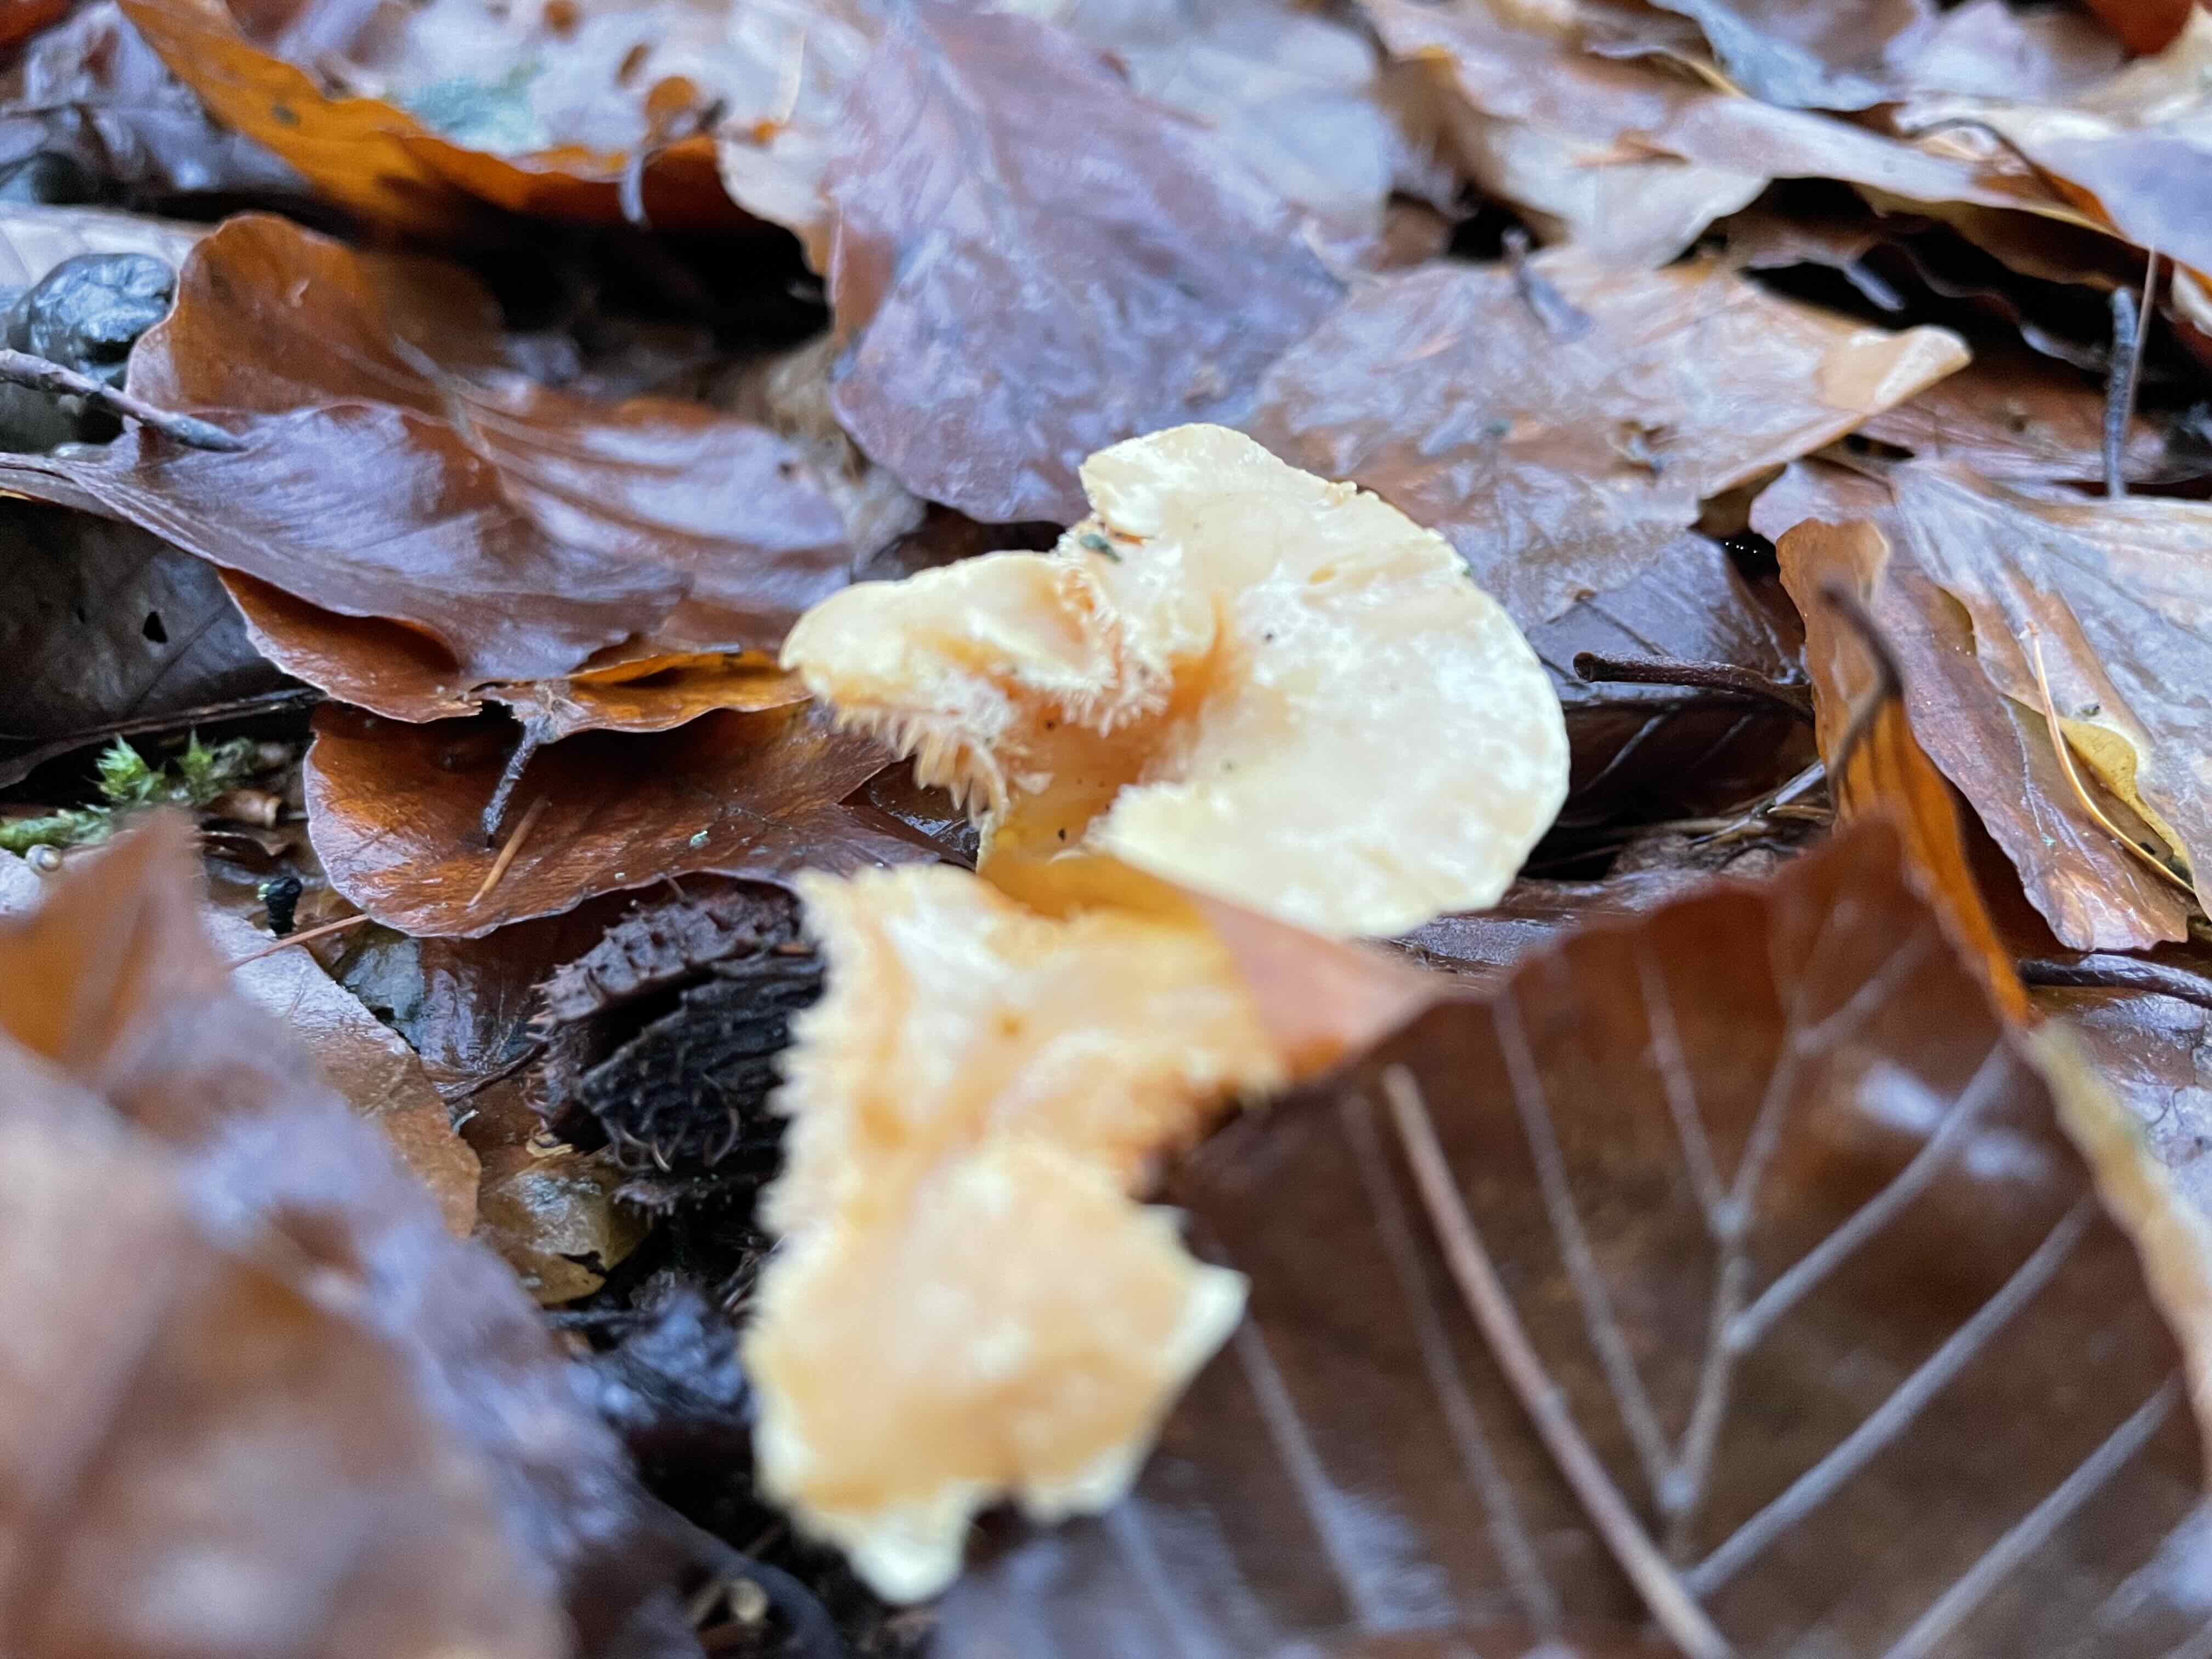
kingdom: Fungi
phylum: Basidiomycota
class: Agaricomycetes
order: Cantharellales
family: Hydnaceae
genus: Hydnum
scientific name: Hydnum
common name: pigsvamp
